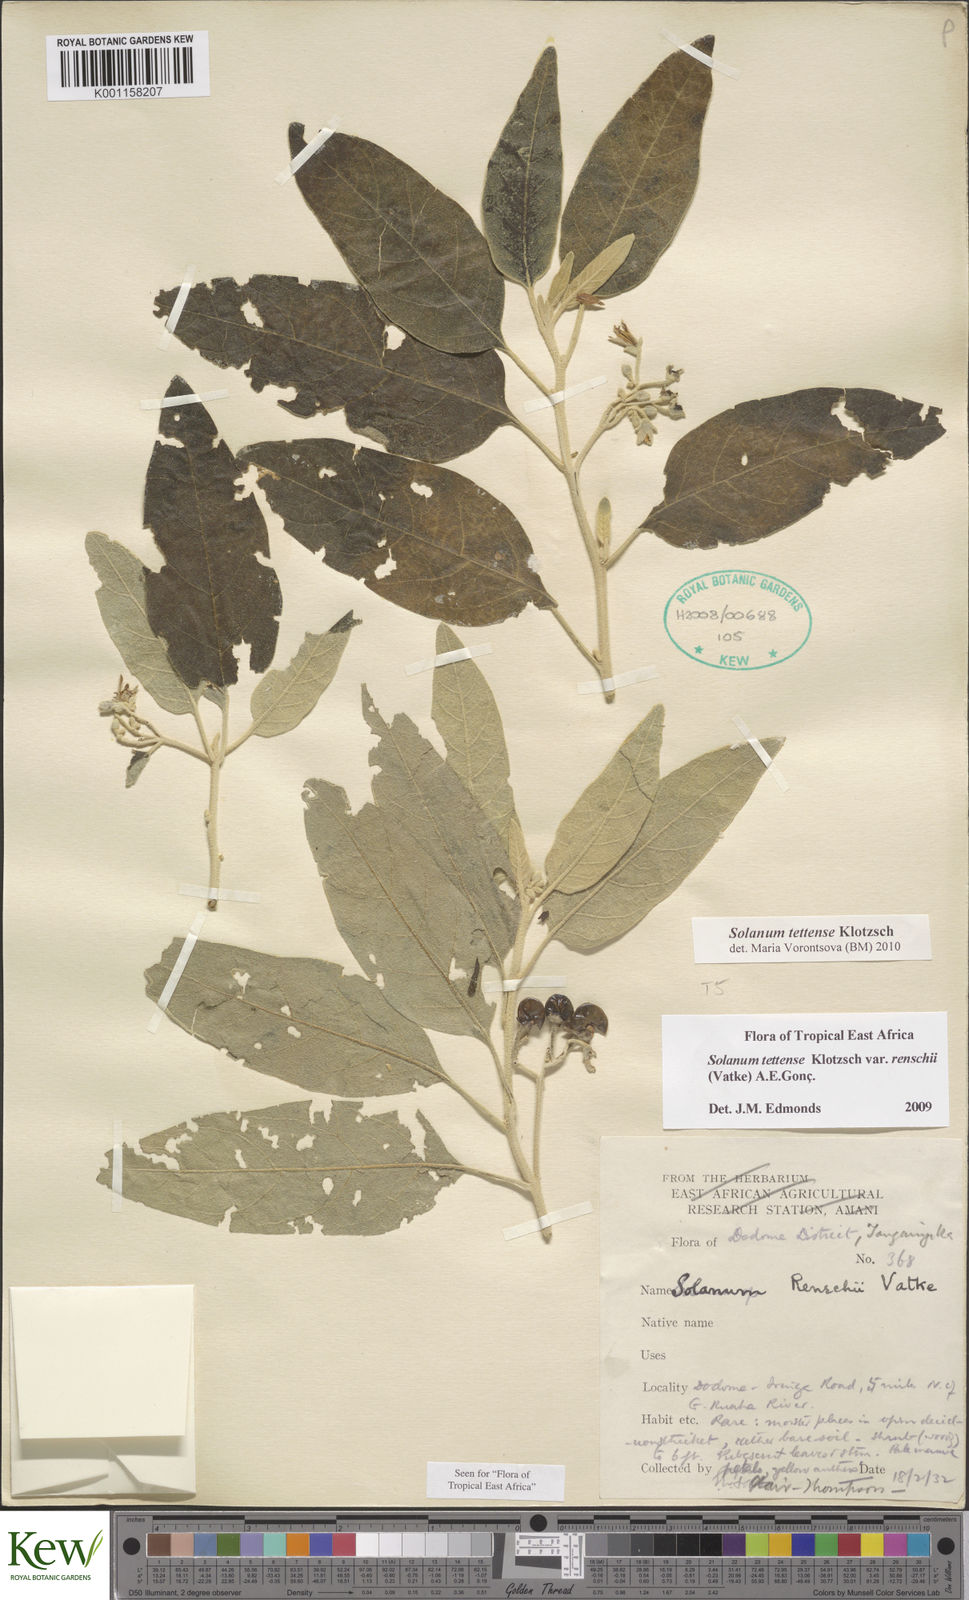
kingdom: Plantae
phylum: Tracheophyta
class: Magnoliopsida
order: Solanales
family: Solanaceae
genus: Solanum
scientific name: Solanum tettense
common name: Mozambique bitter apple
